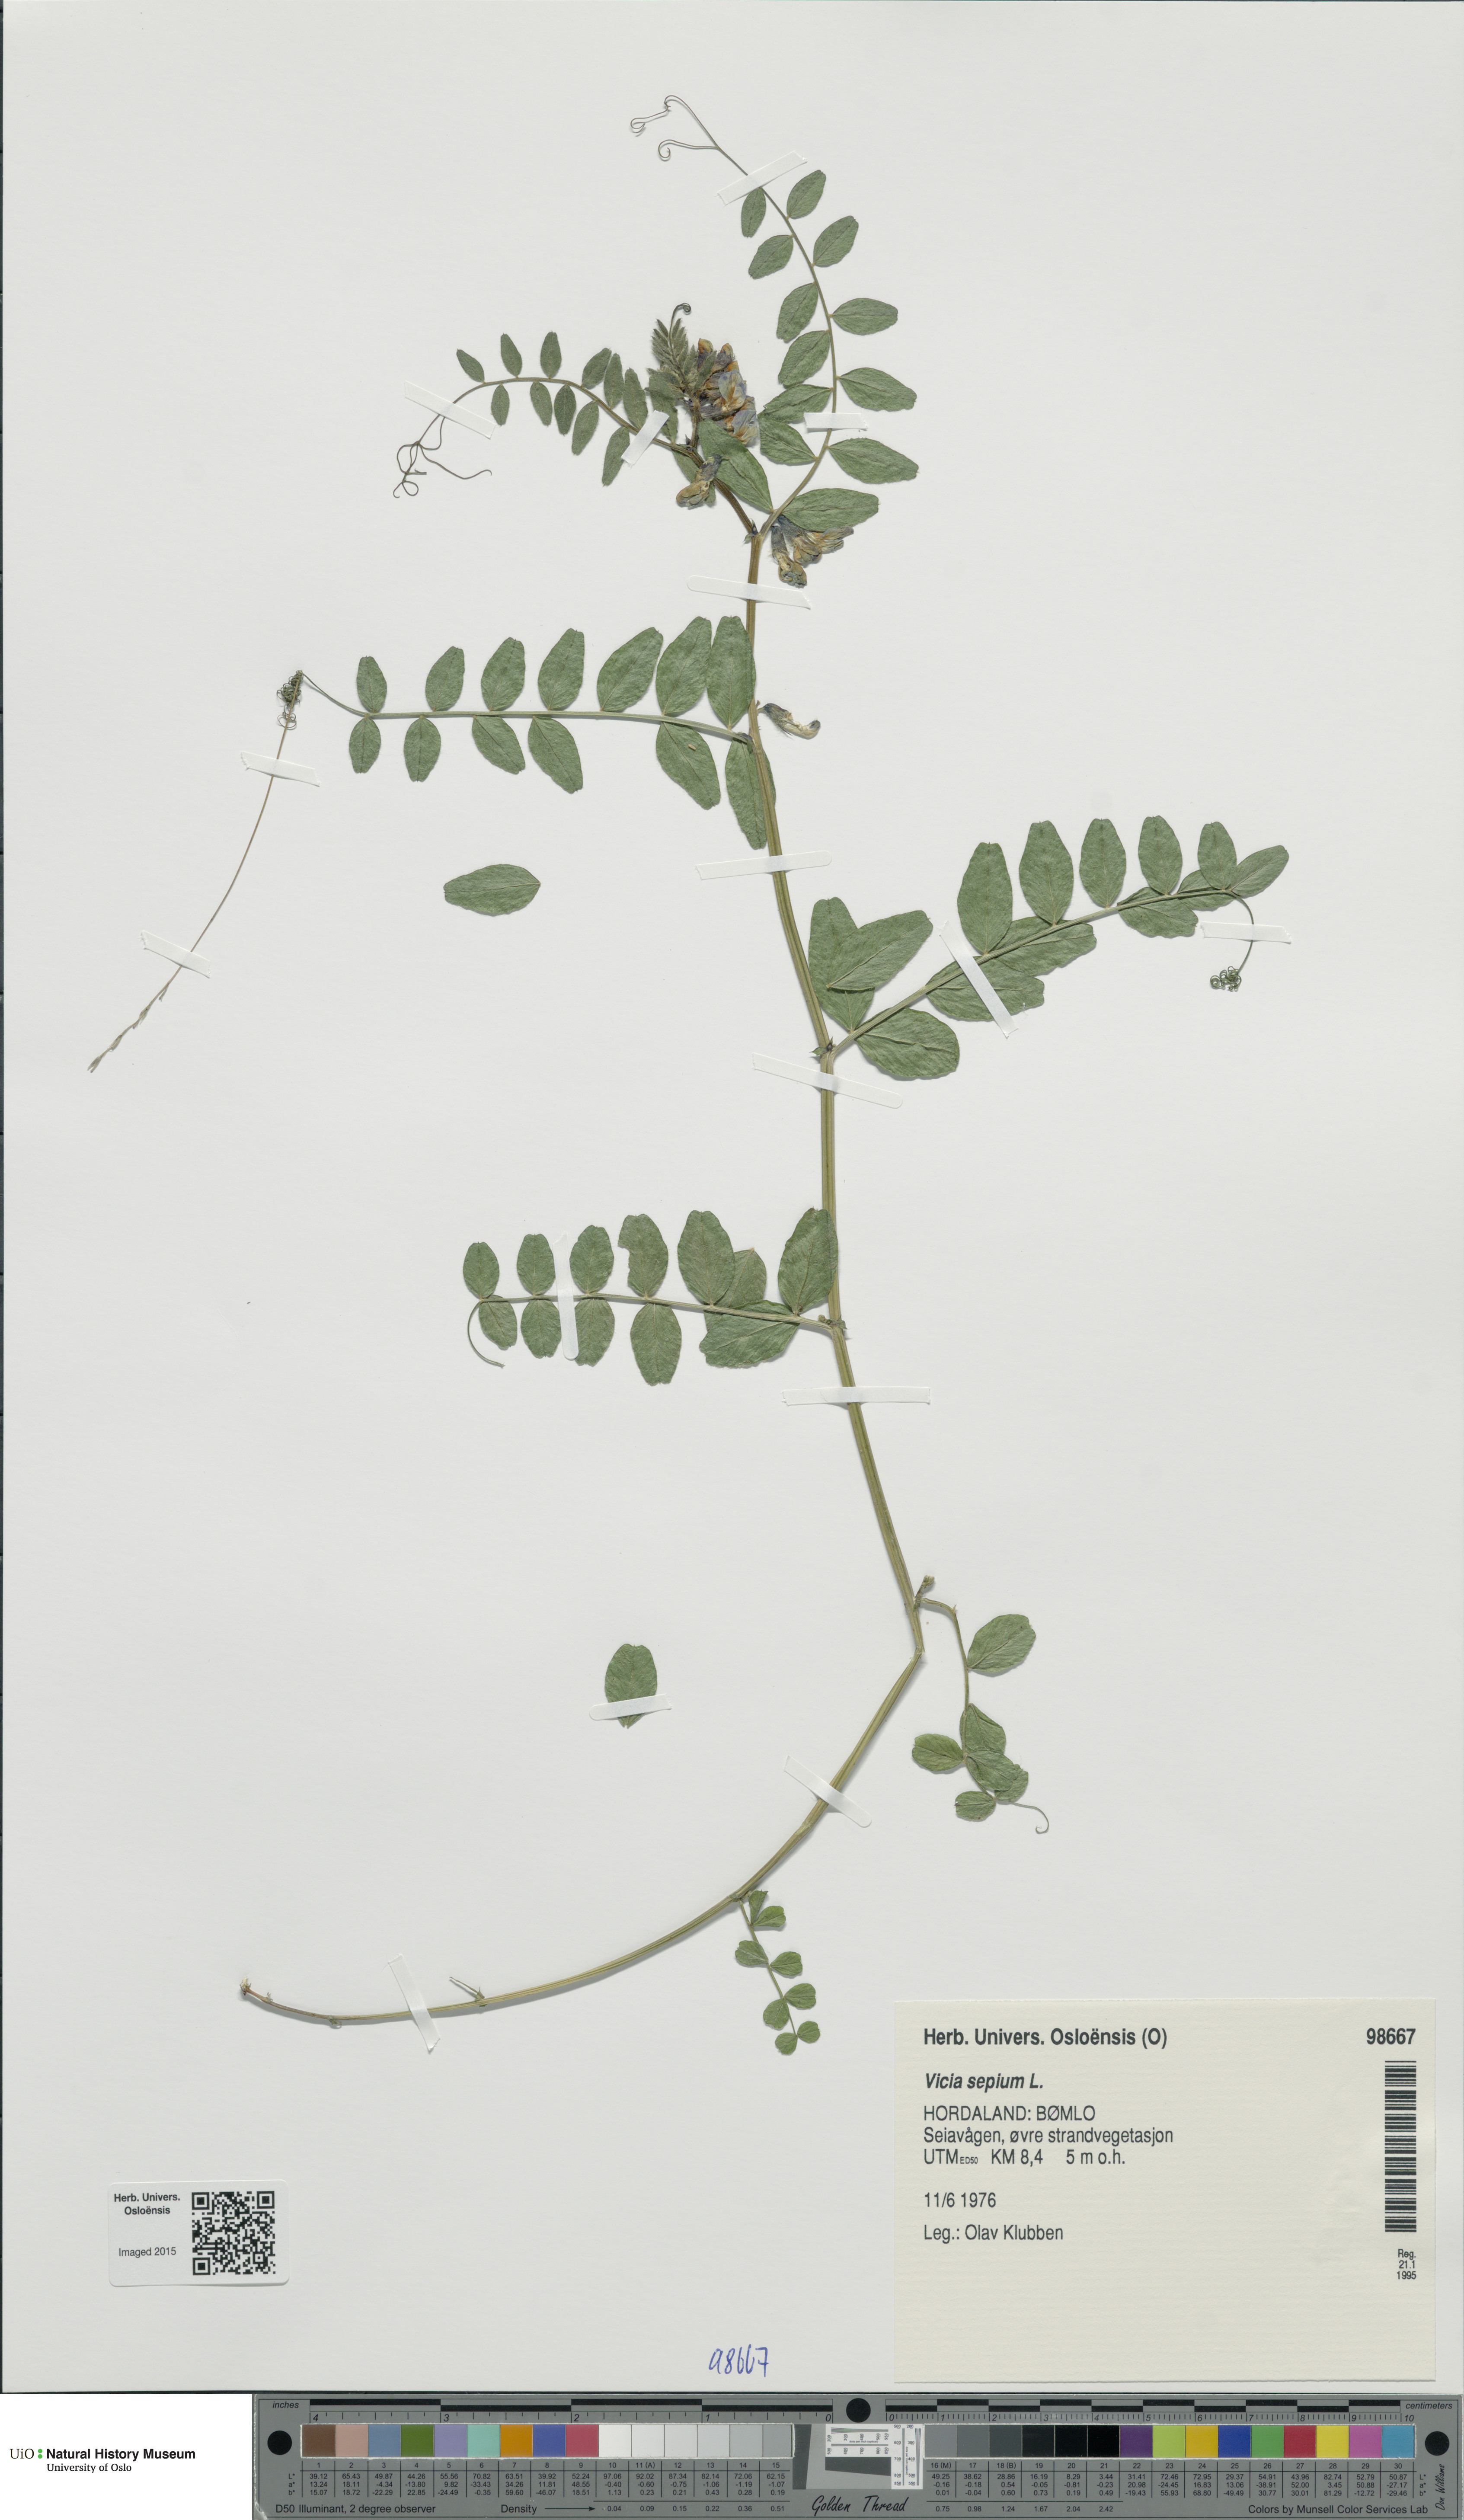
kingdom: Plantae
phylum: Tracheophyta
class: Magnoliopsida
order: Fabales
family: Fabaceae
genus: Vicia
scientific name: Vicia sepium
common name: Bush vetch
